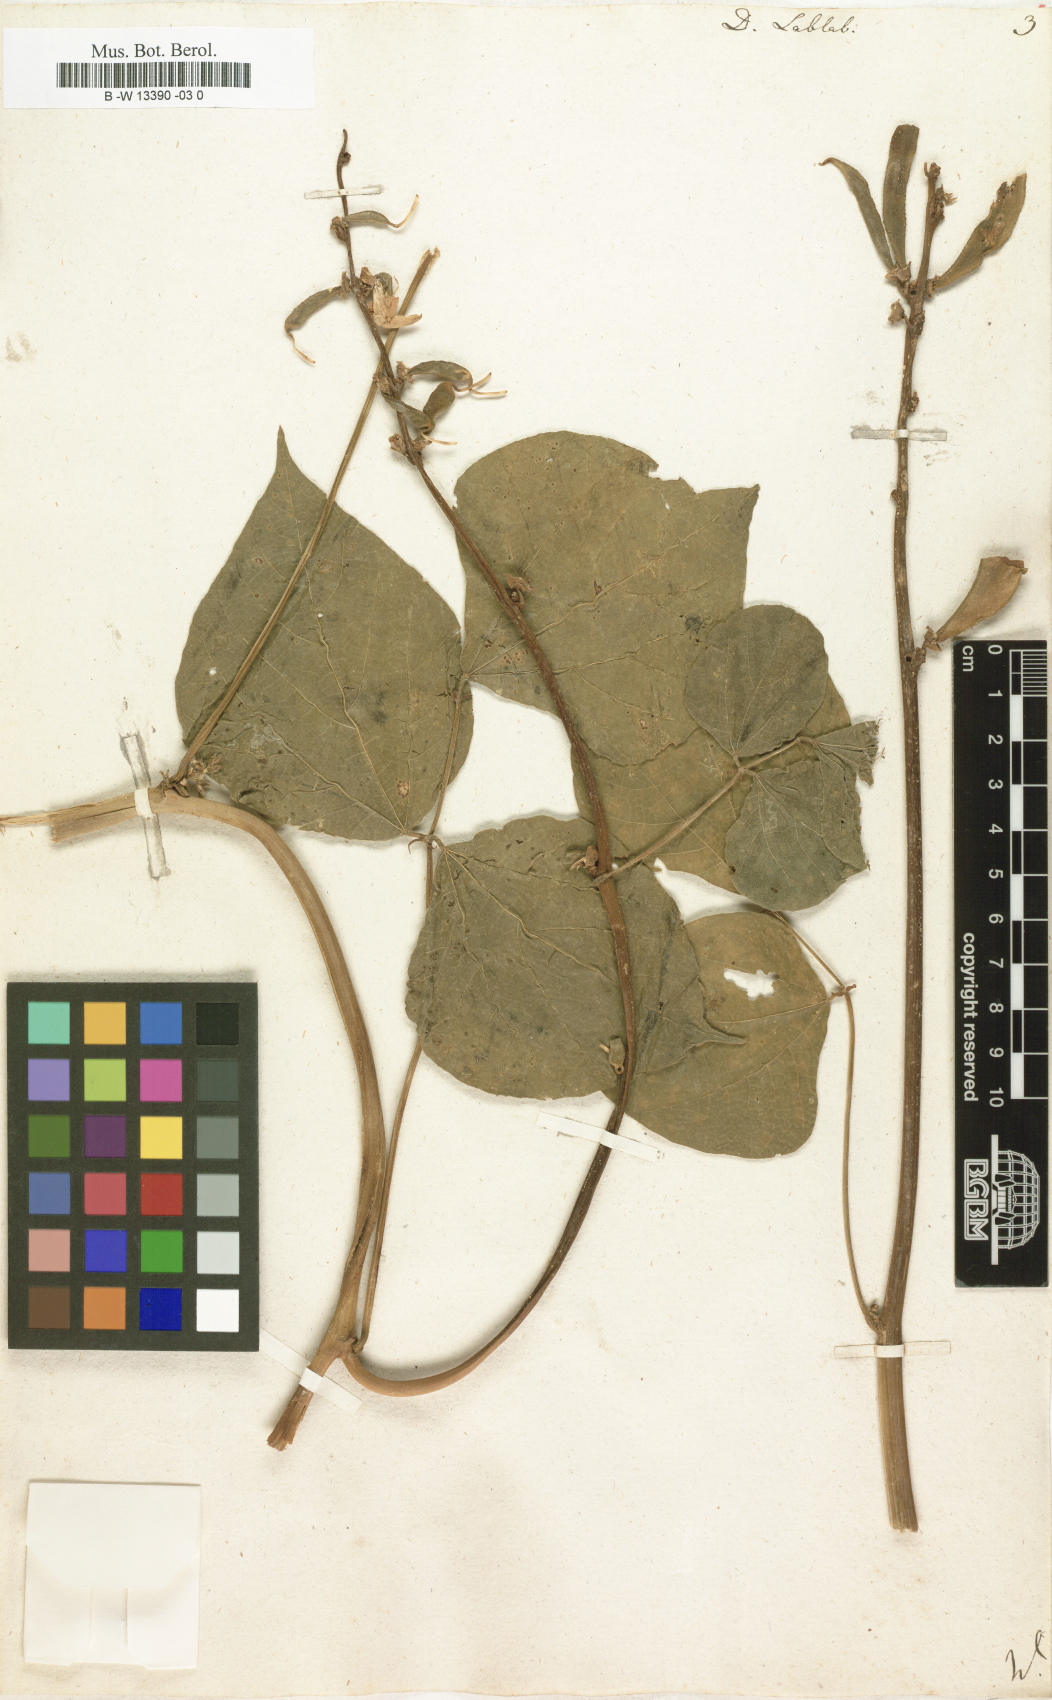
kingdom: Plantae
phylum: Tracheophyta
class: Magnoliopsida
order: Fabales
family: Fabaceae
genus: Lablab
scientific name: Lablab purpureus
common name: Lablab-bean
